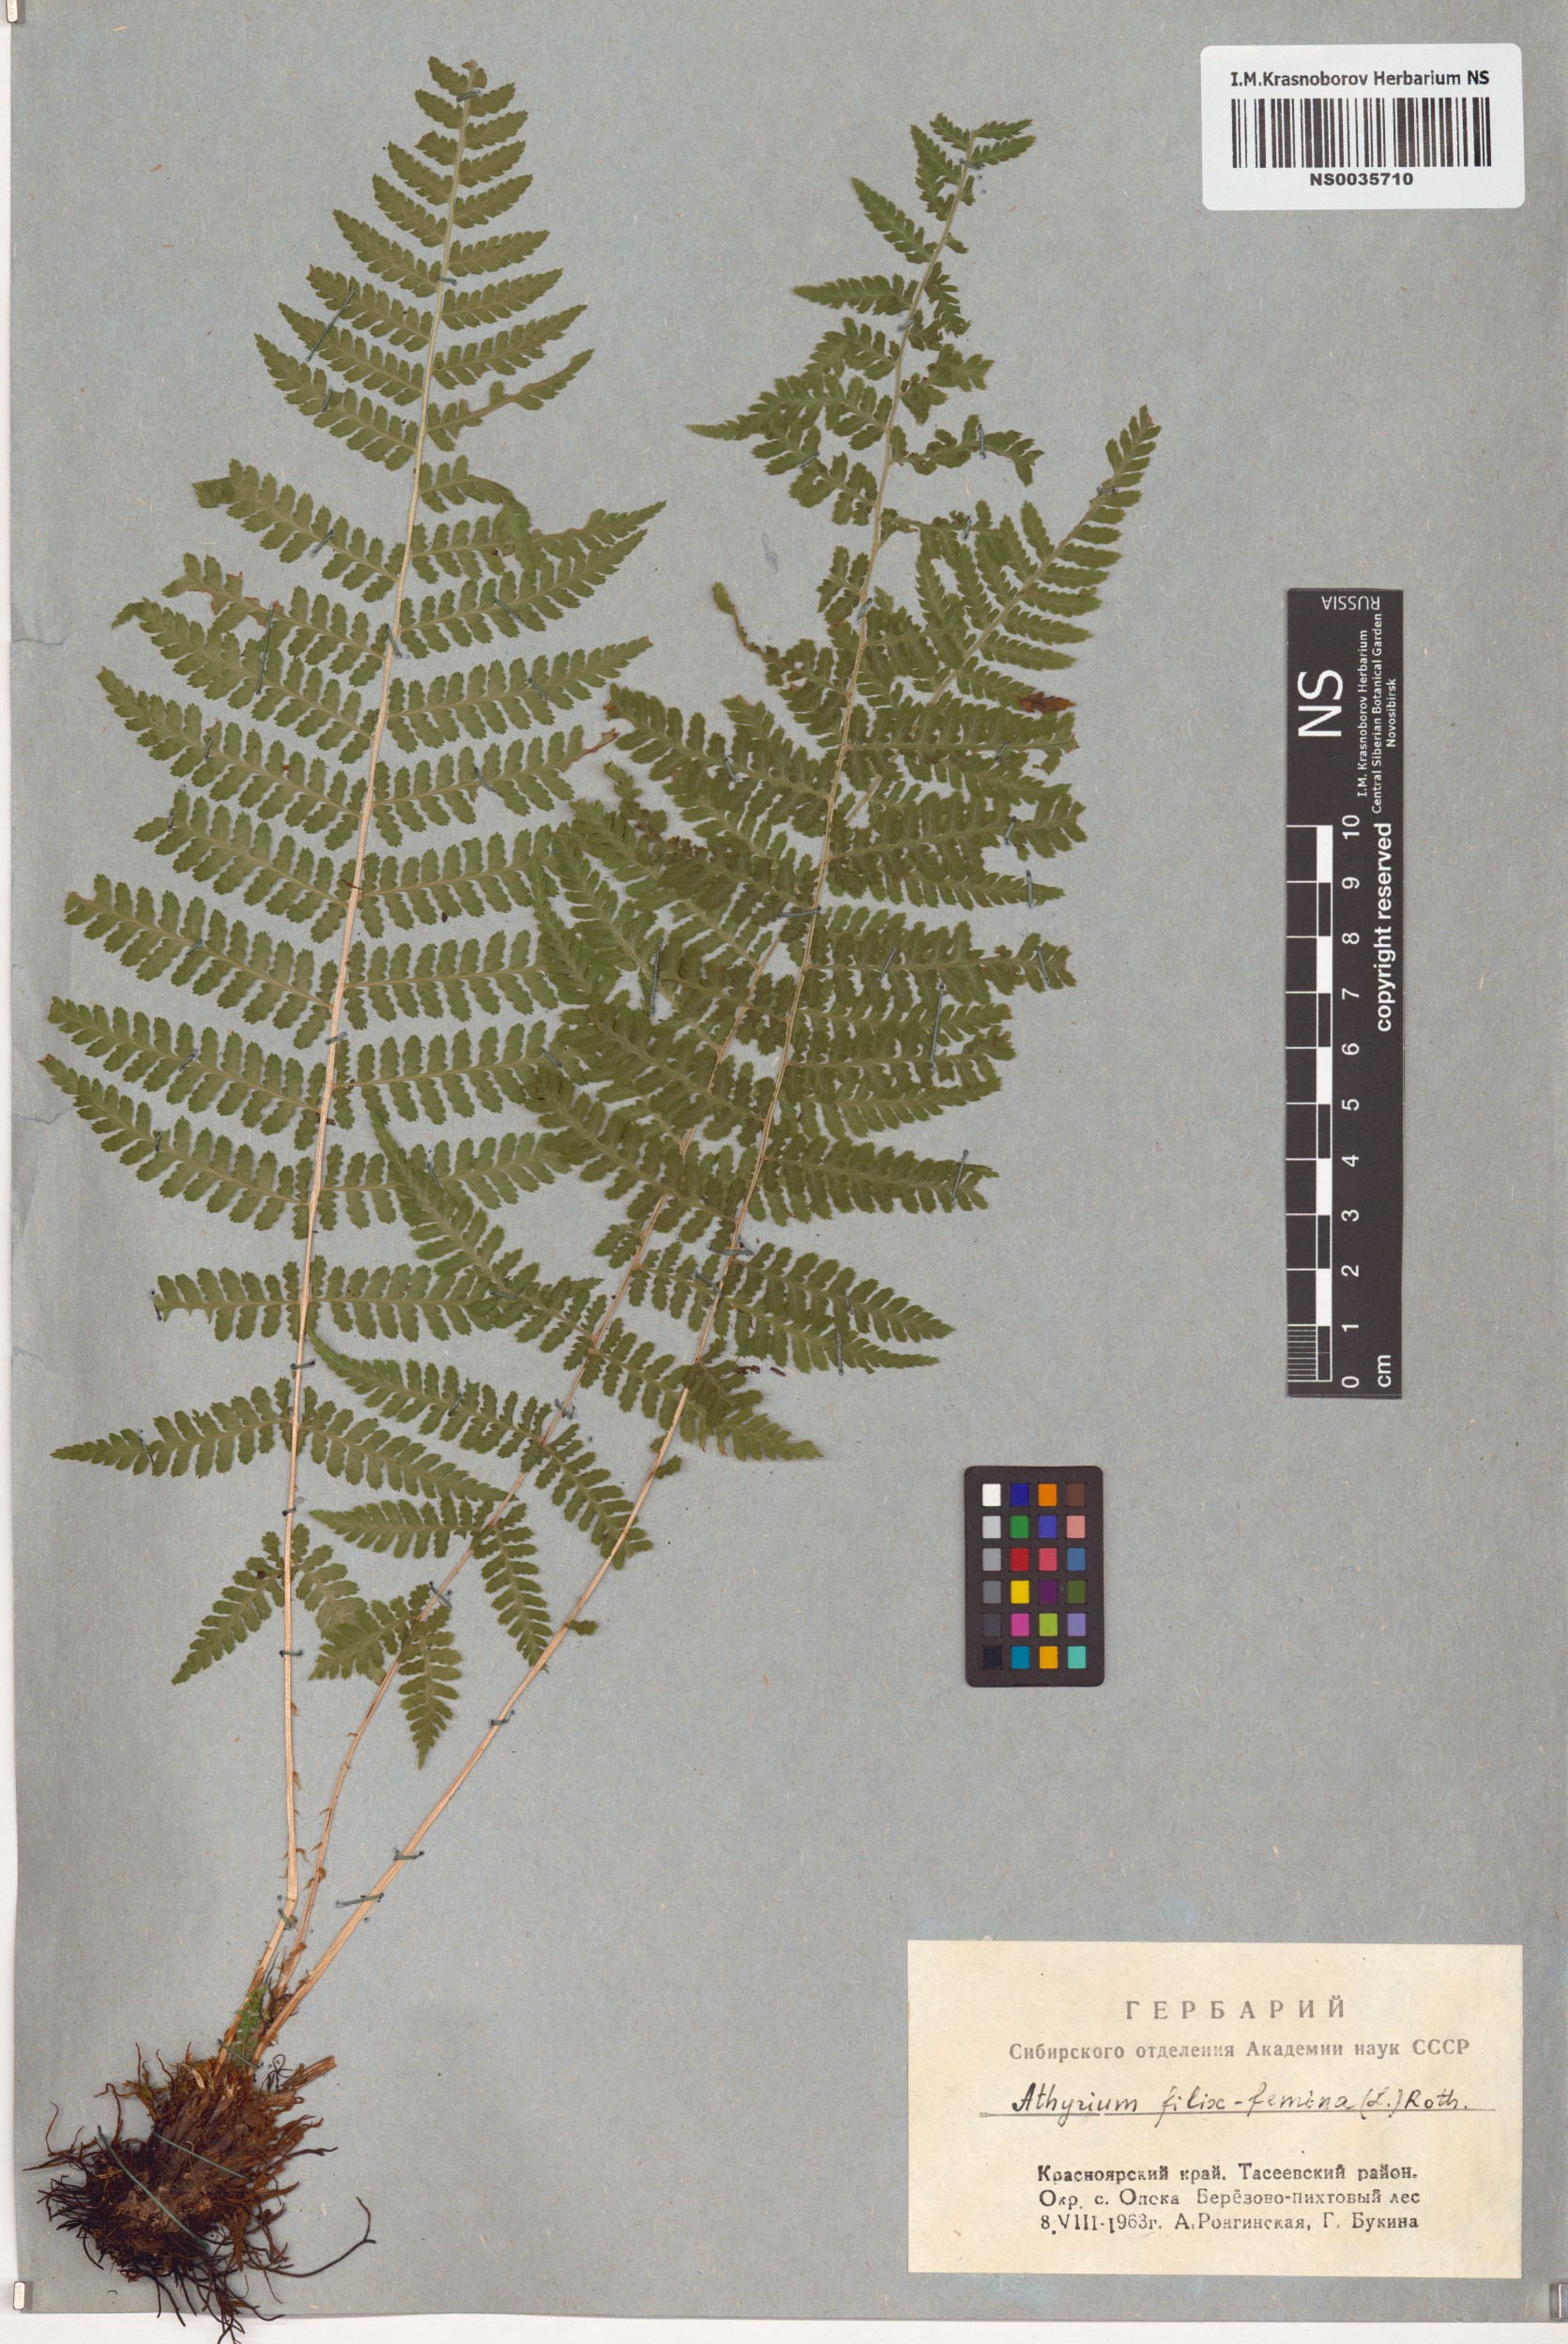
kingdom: Plantae
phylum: Tracheophyta
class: Polypodiopsida
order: Polypodiales
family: Athyriaceae
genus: Athyrium
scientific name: Athyrium filix-femina
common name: Lady fern
